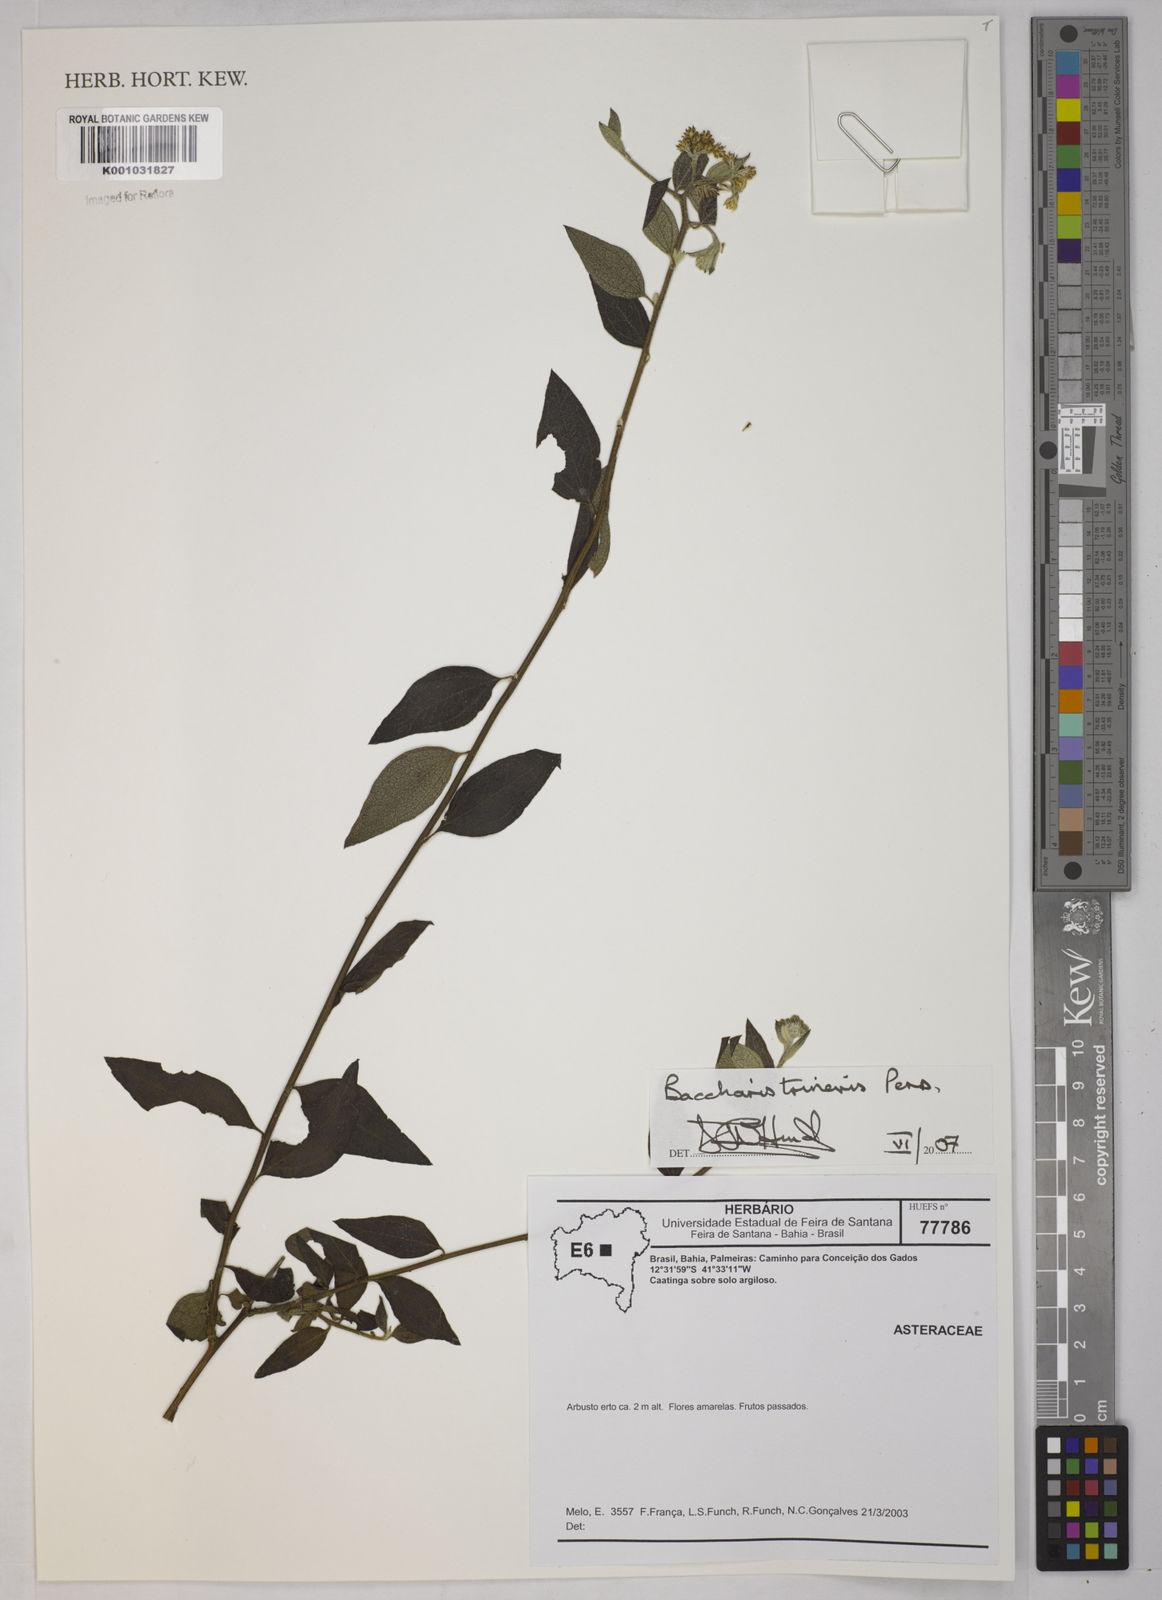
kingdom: Plantae
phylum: Tracheophyta
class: Magnoliopsida
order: Asterales
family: Asteraceae
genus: Baccharis
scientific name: Baccharis trinervis
